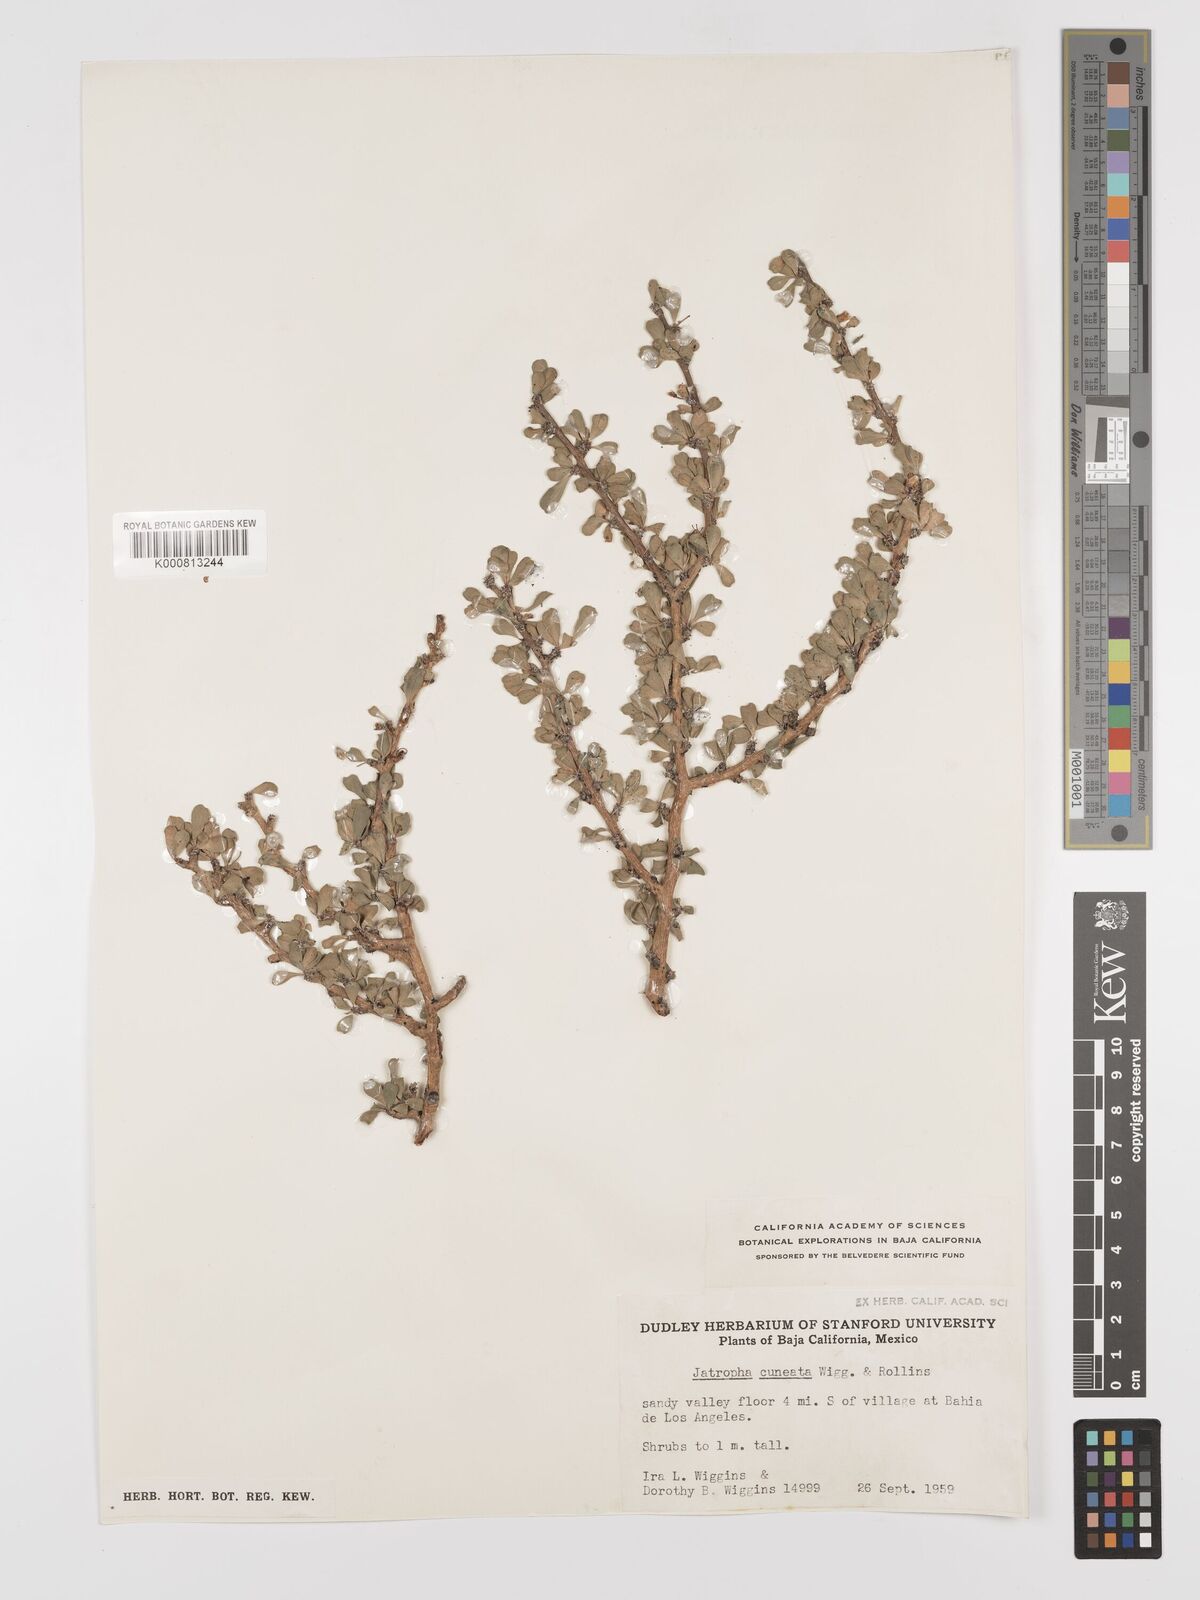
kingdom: Plantae
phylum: Tracheophyta
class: Magnoliopsida
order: Malpighiales
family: Euphorbiaceae
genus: Jatropha
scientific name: Jatropha cuneata
